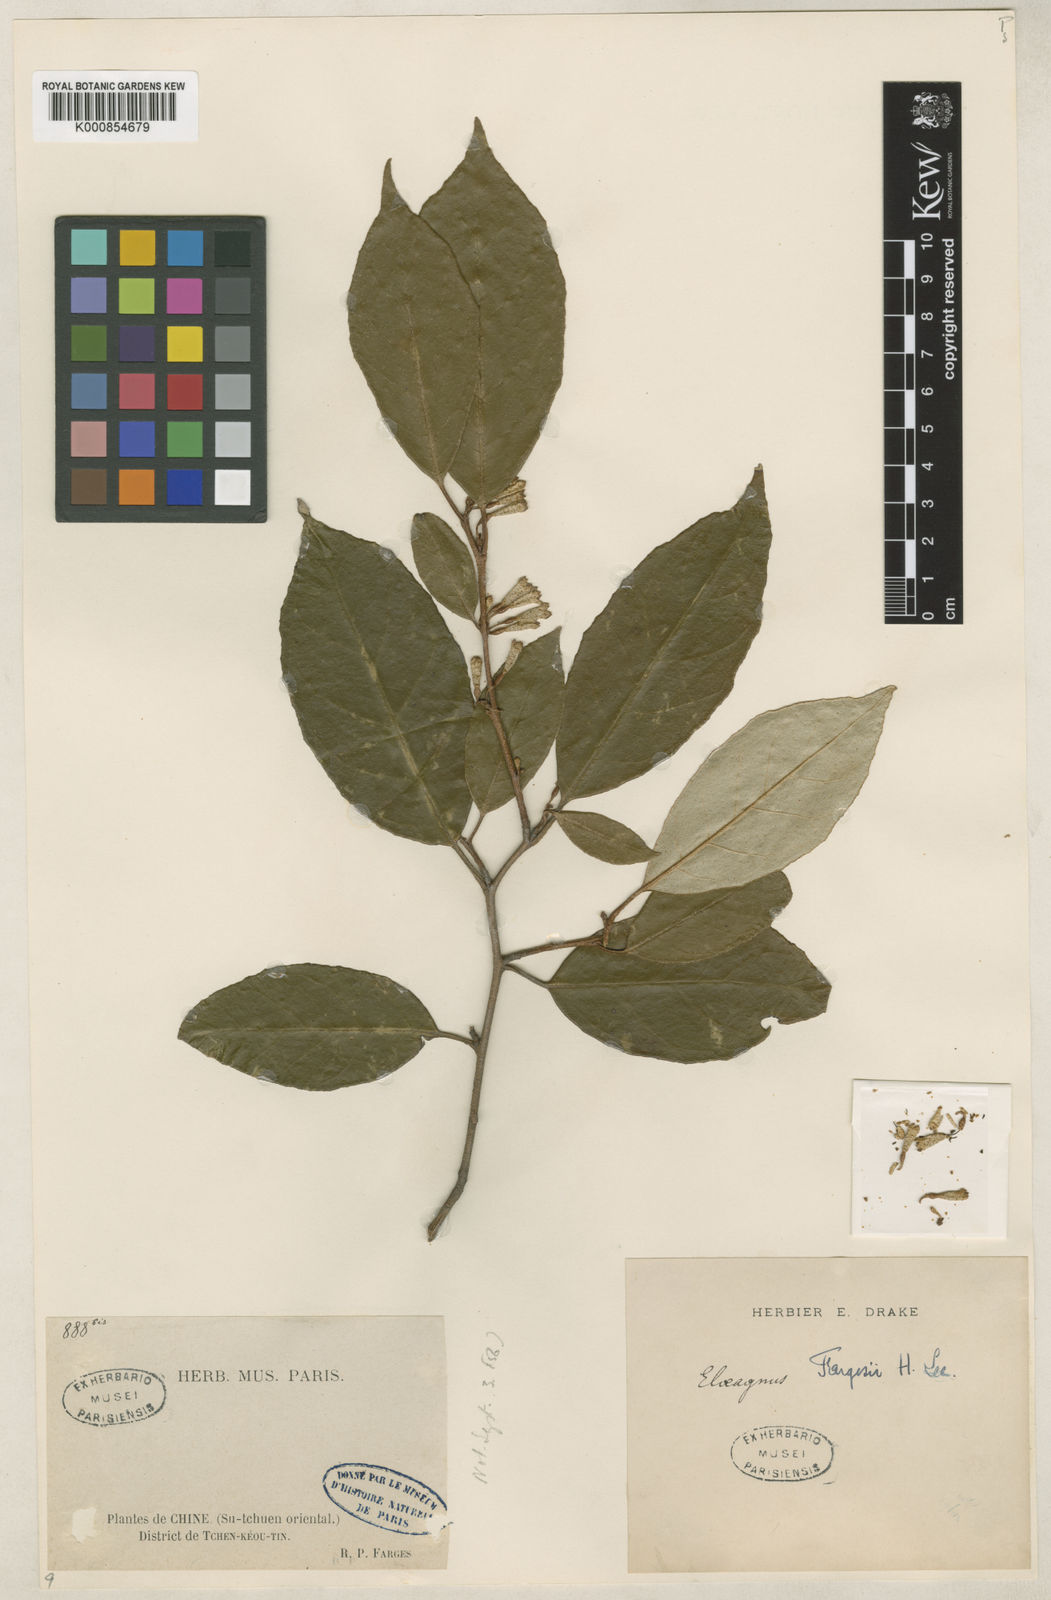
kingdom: Plantae
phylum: Tracheophyta
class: Magnoliopsida
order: Rosales
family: Elaeagnaceae
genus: Elaeagnus
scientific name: Elaeagnus
